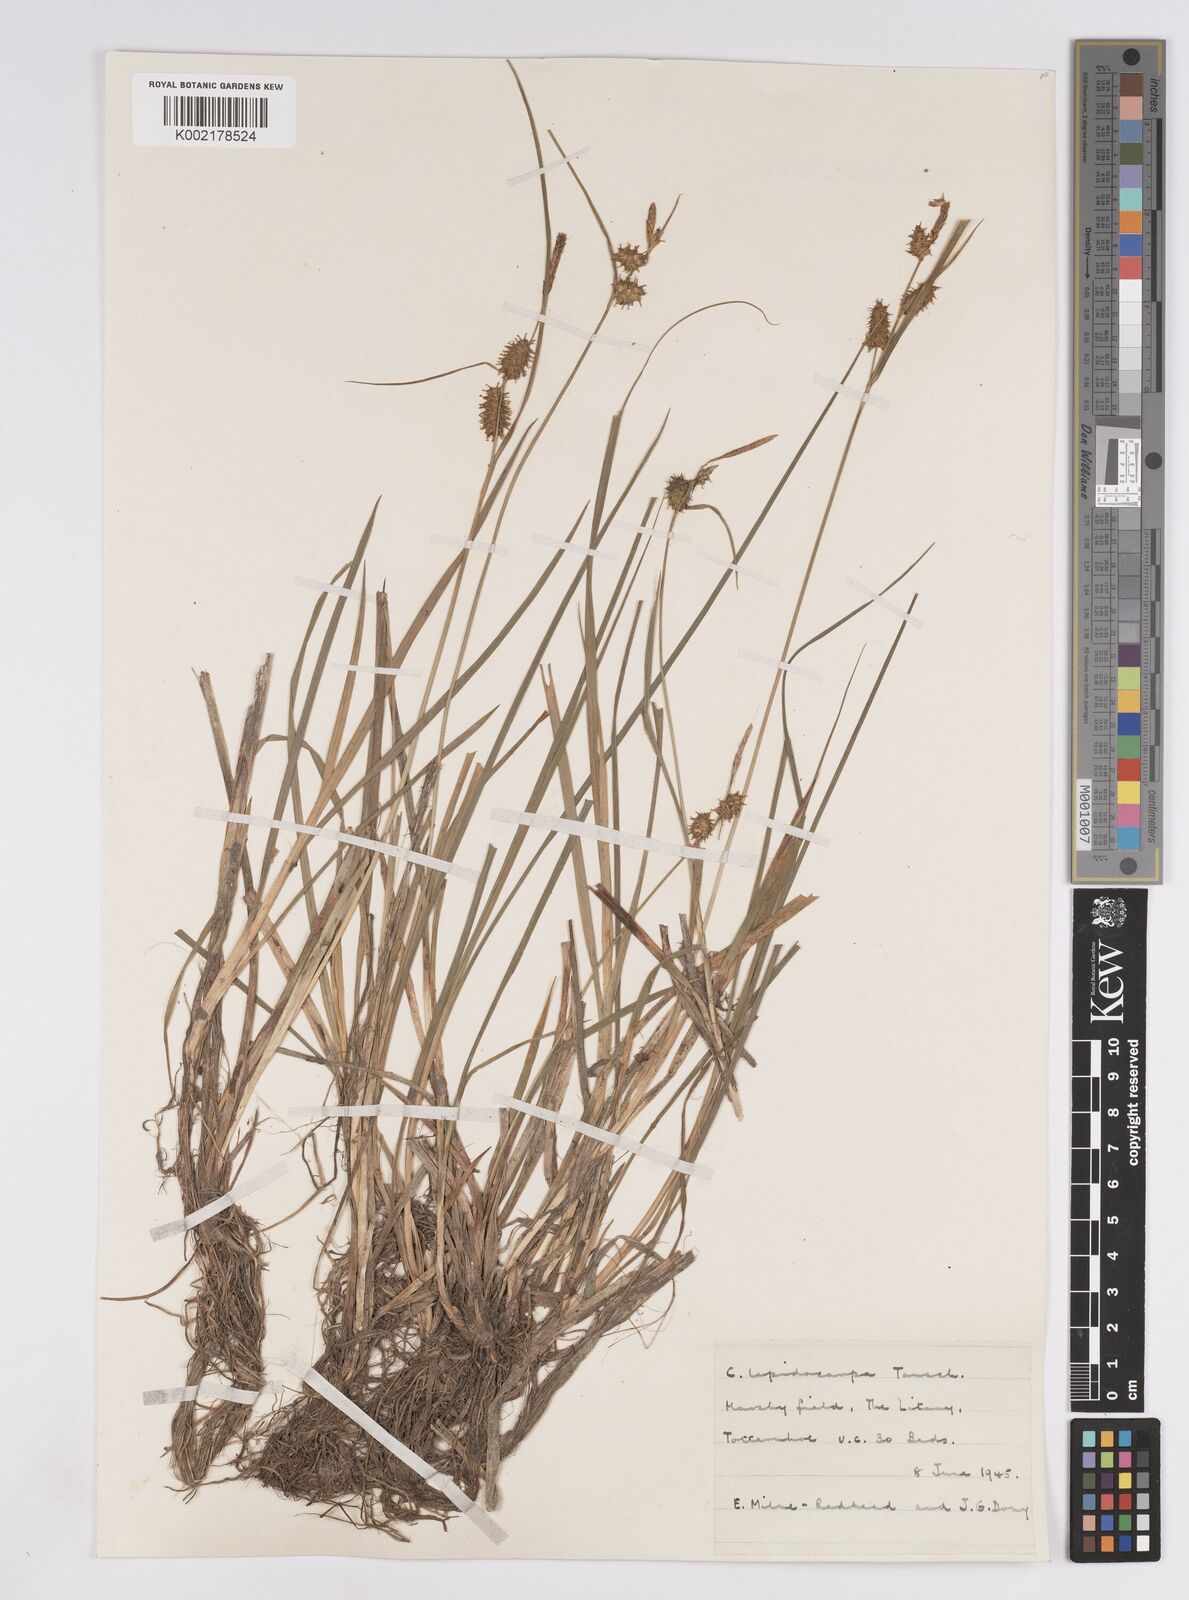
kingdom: Plantae
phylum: Tracheophyta
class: Liliopsida
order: Poales
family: Cyperaceae
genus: Carex
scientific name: Carex lepidocarpa
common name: Long-stalked yellow-sedge
